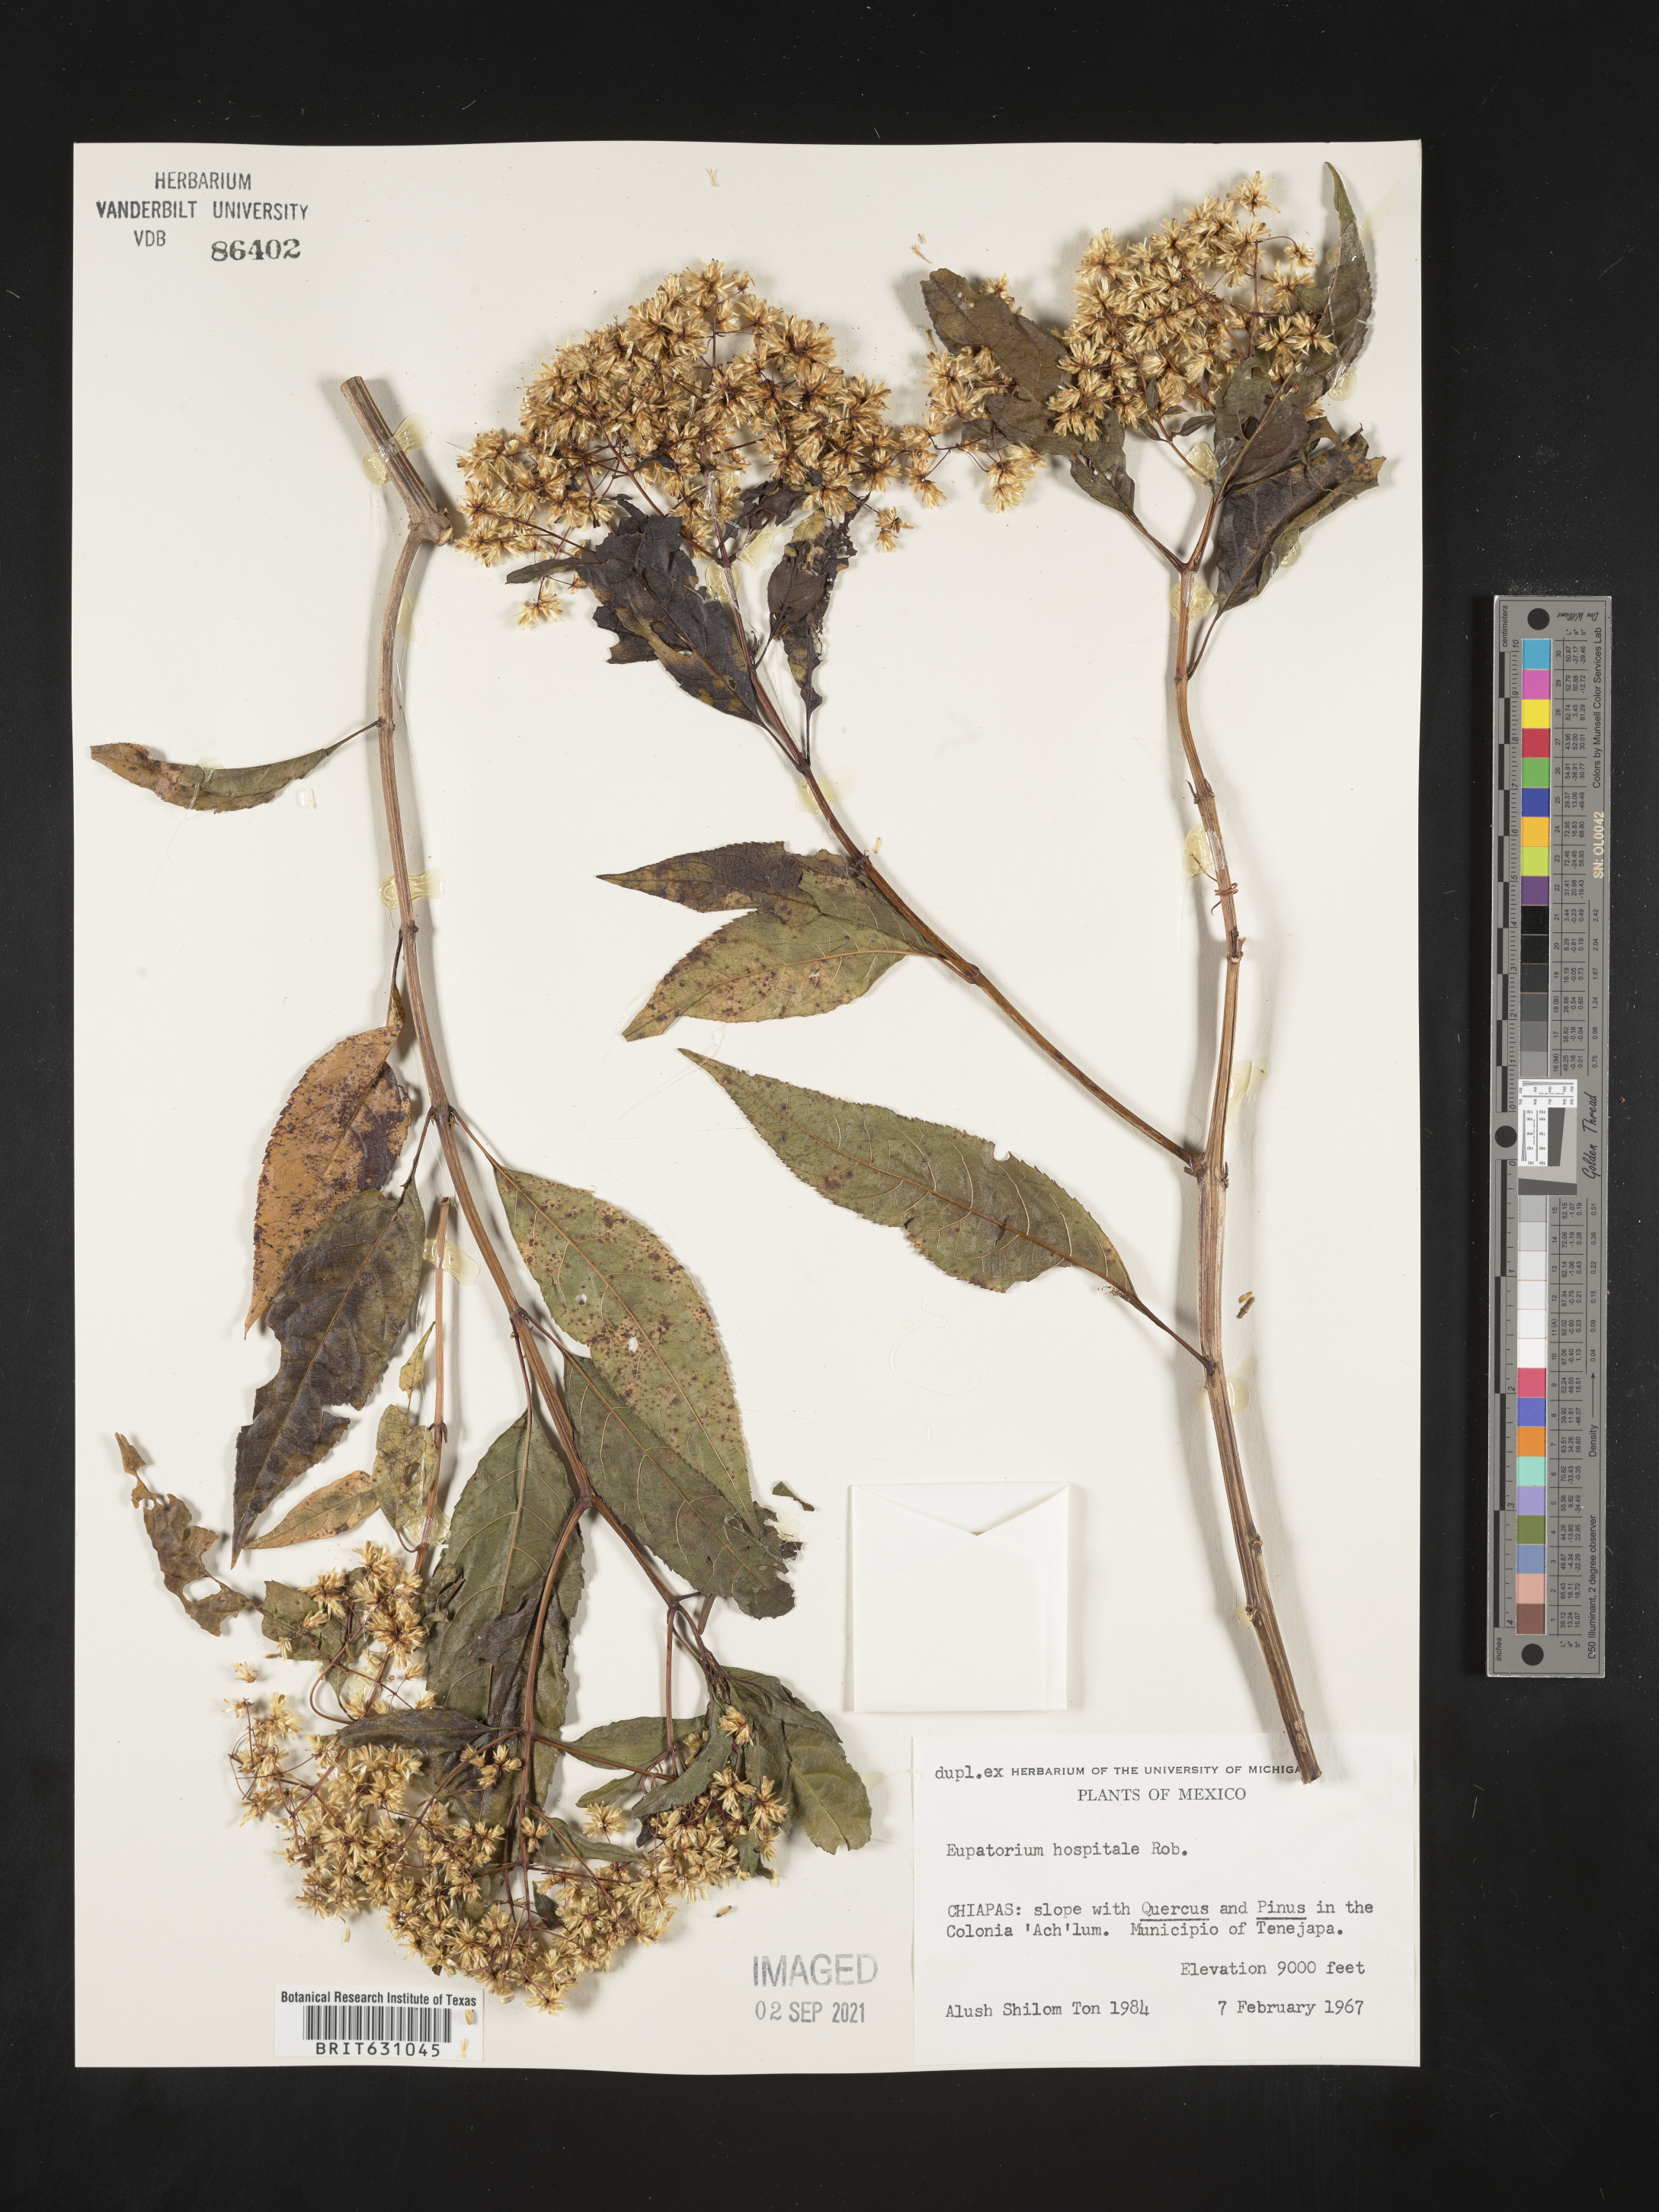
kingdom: Plantae
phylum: Tracheophyta
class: Magnoliopsida
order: Asterales
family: Asteraceae
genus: Eupatorium
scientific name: Eupatorium
